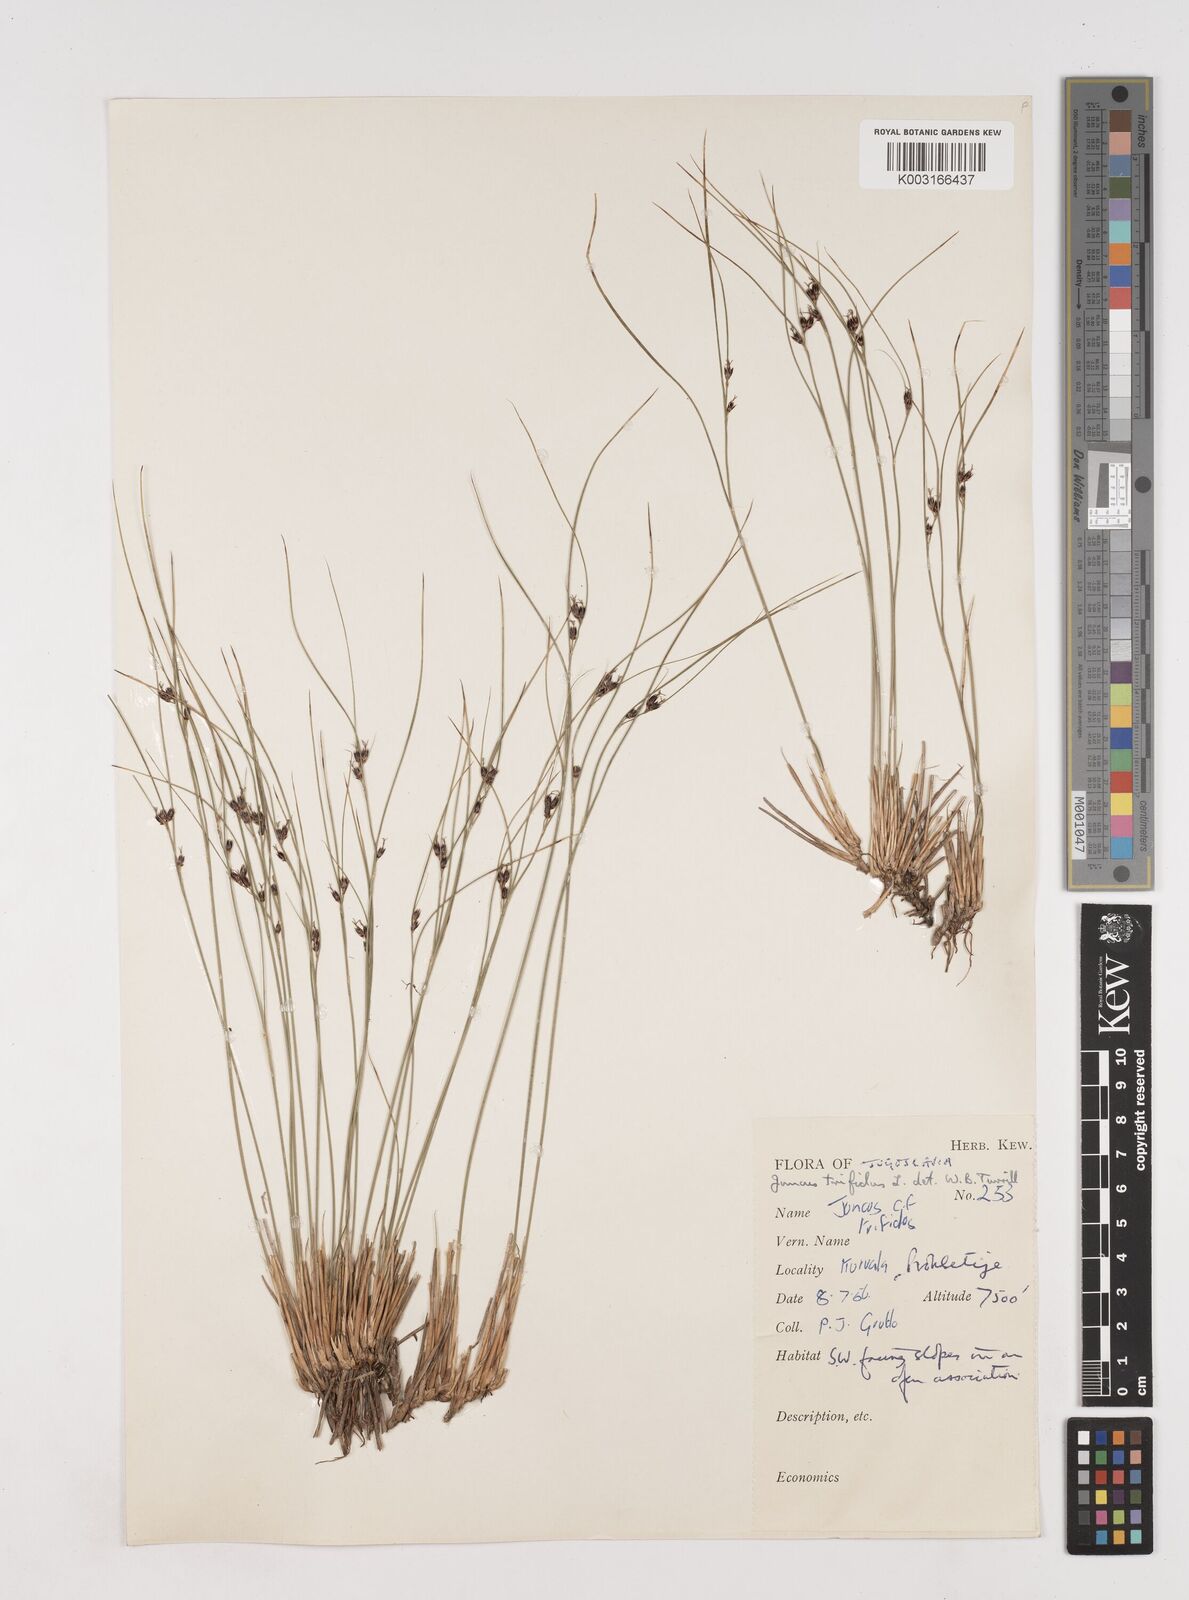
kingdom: Plantae
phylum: Tracheophyta
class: Liliopsida
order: Poales
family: Juncaceae
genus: Oreojuncus
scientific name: Oreojuncus trifidus
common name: Highland rush
